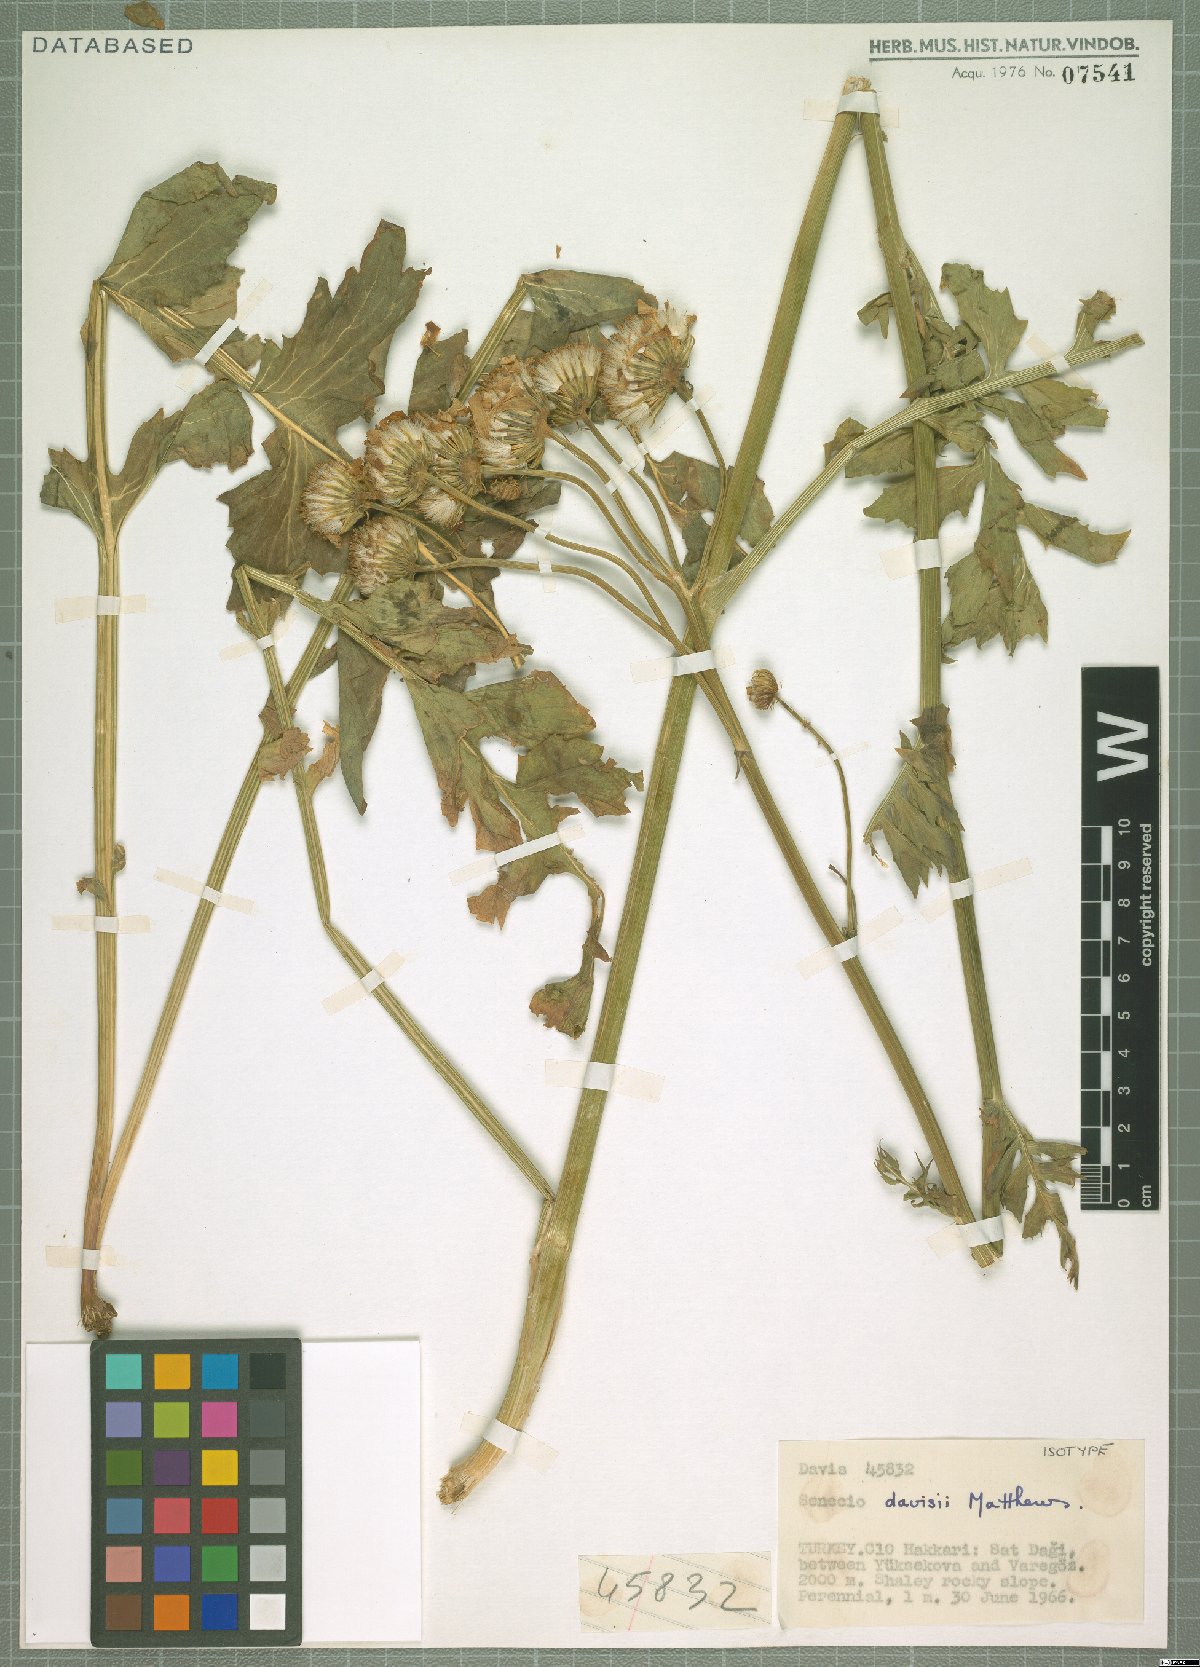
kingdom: Plantae
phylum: Tracheophyta
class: Magnoliopsida
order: Asterales
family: Asteraceae
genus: Turanecio
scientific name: Turanecio davisii
